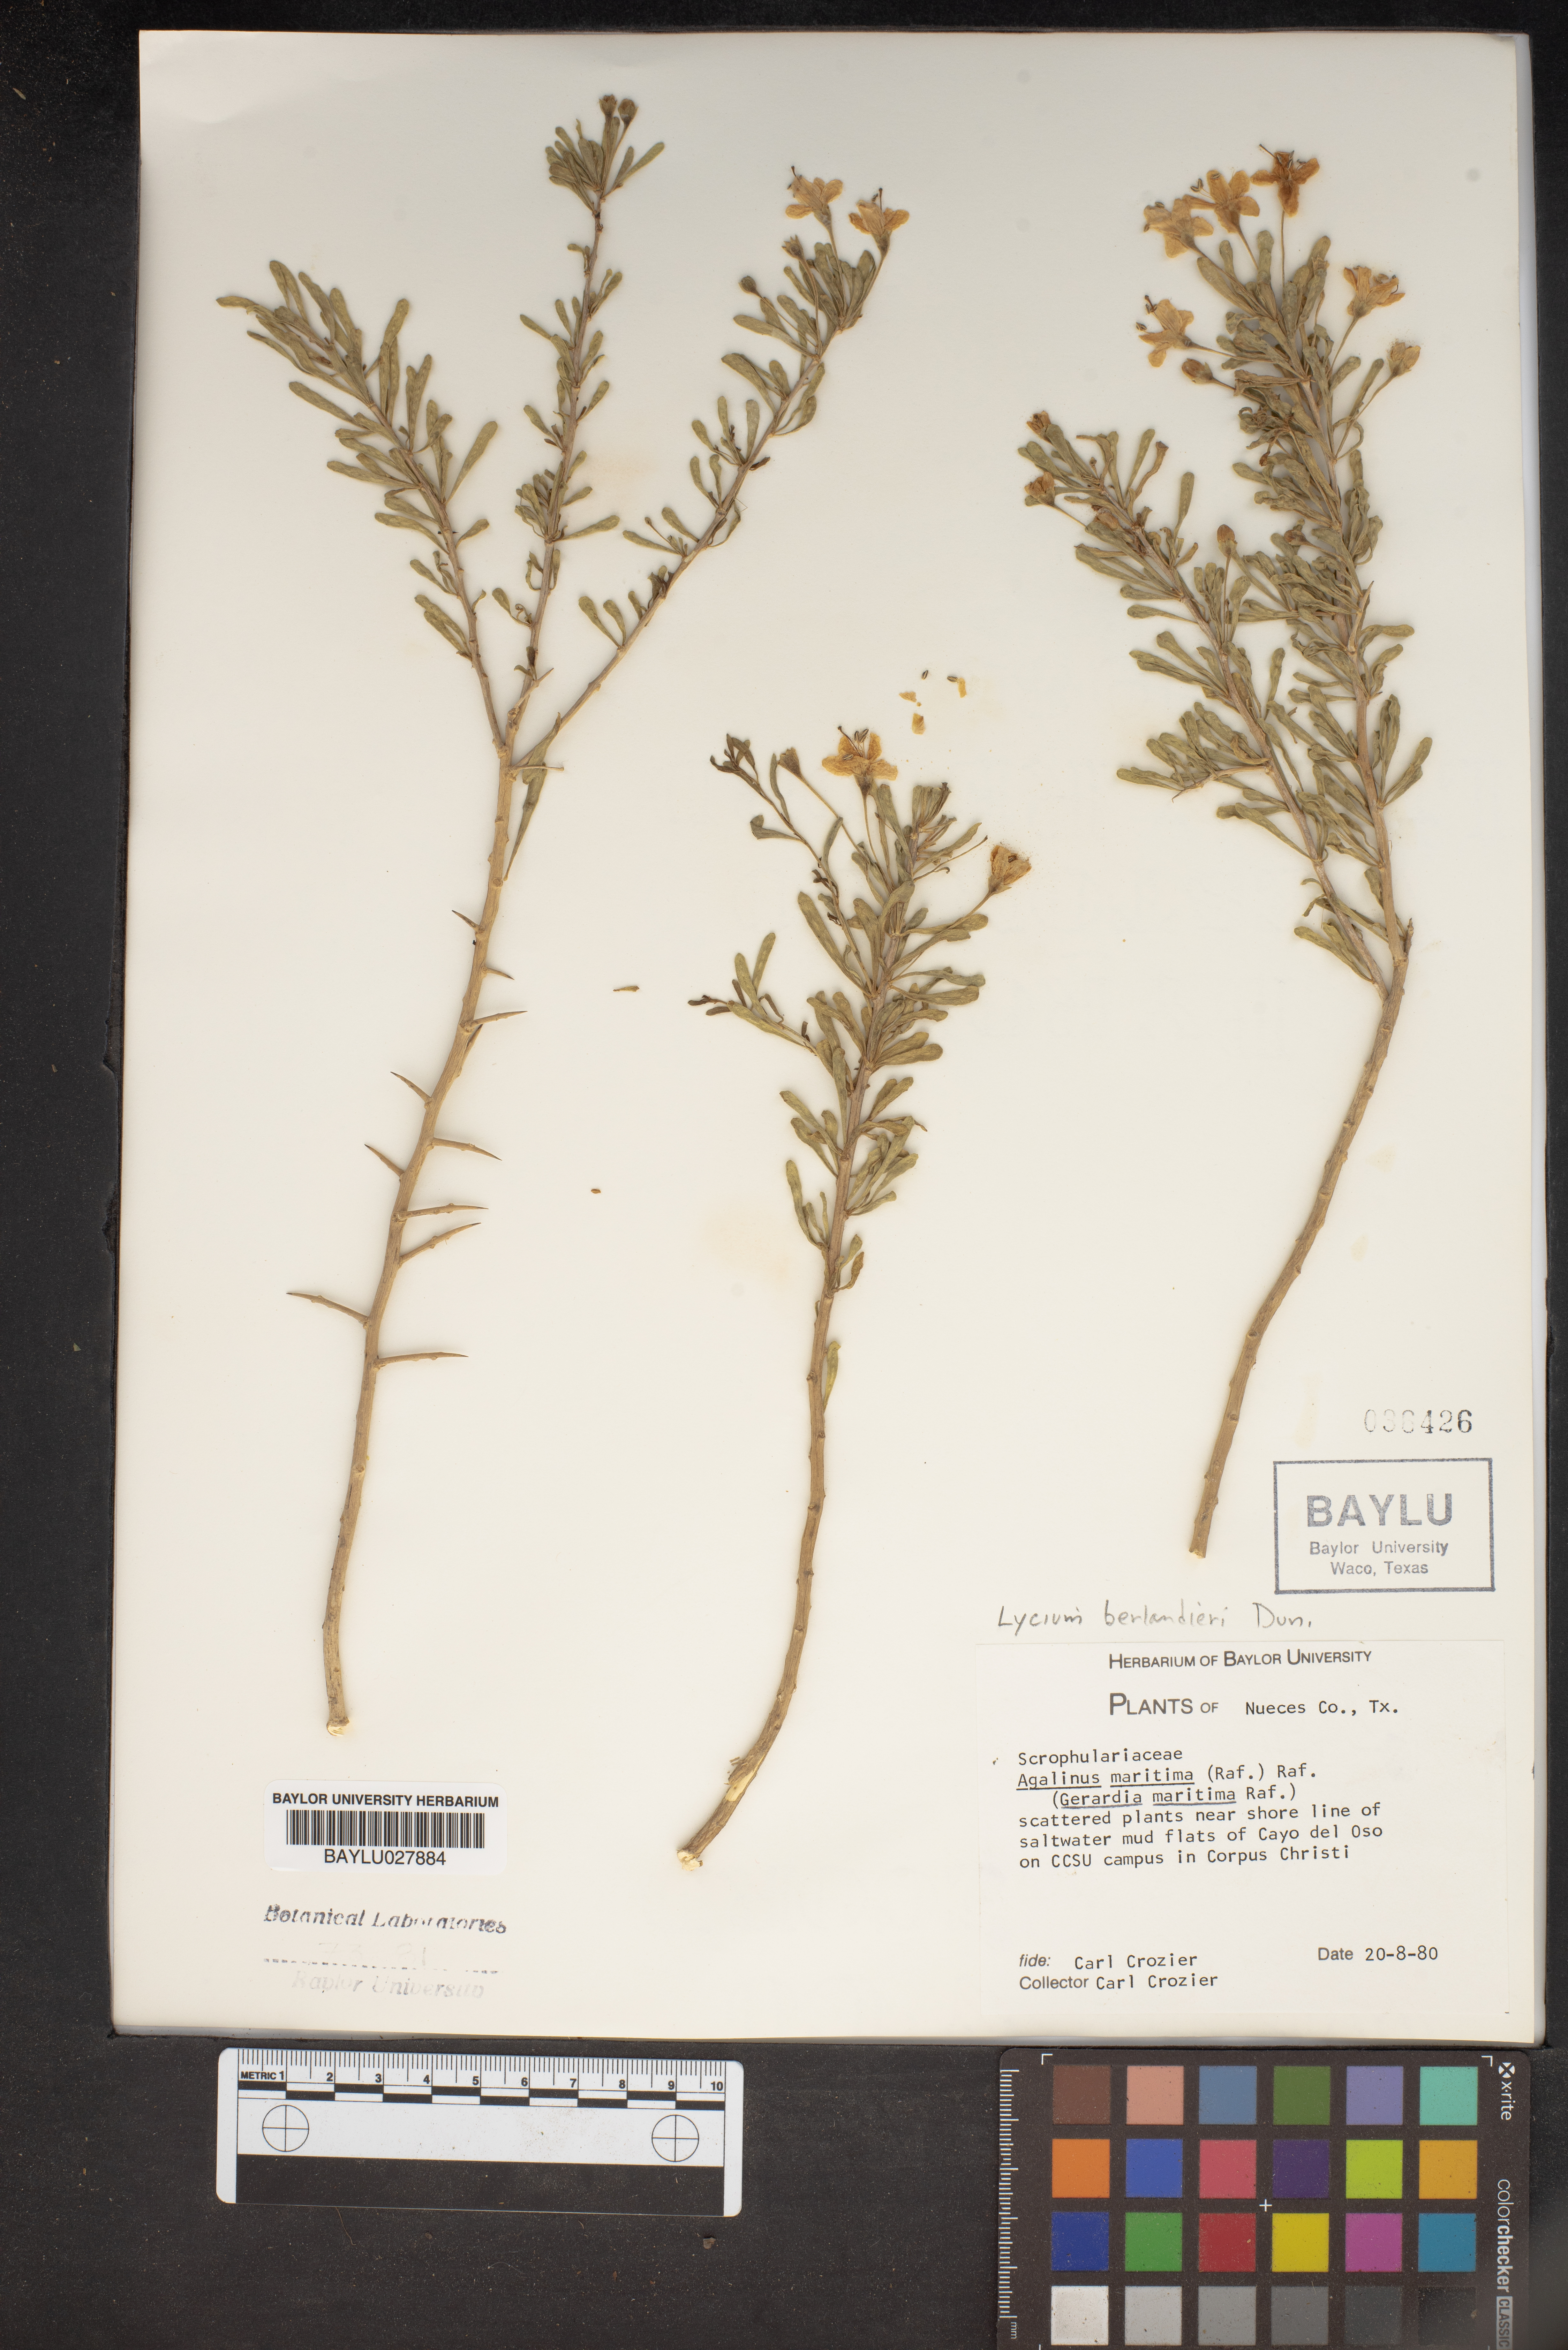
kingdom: Plantae
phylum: Tracheophyta
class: Magnoliopsida
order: Lamiales
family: Orobanchaceae
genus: Agalinis
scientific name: Agalinis maritima
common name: Saltmarsh agalinis
